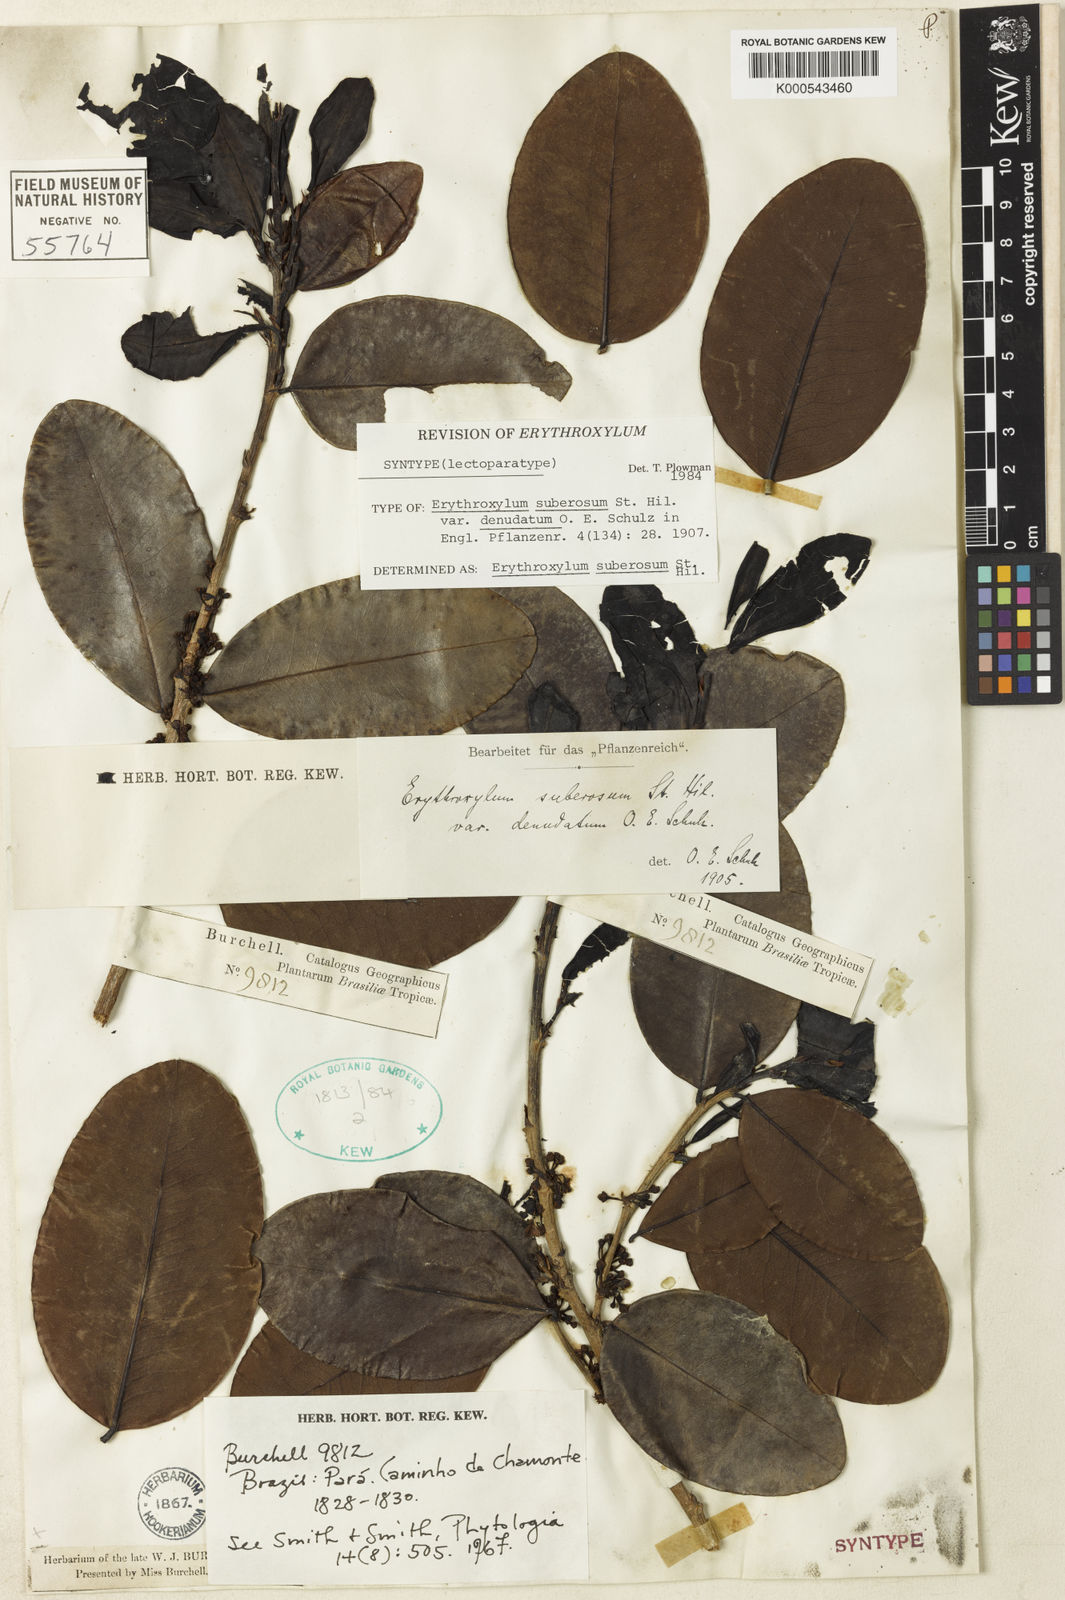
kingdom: Plantae
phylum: Tracheophyta
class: Magnoliopsida
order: Malpighiales
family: Erythroxylaceae
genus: Erythroxylum
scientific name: Erythroxylum suberosum
